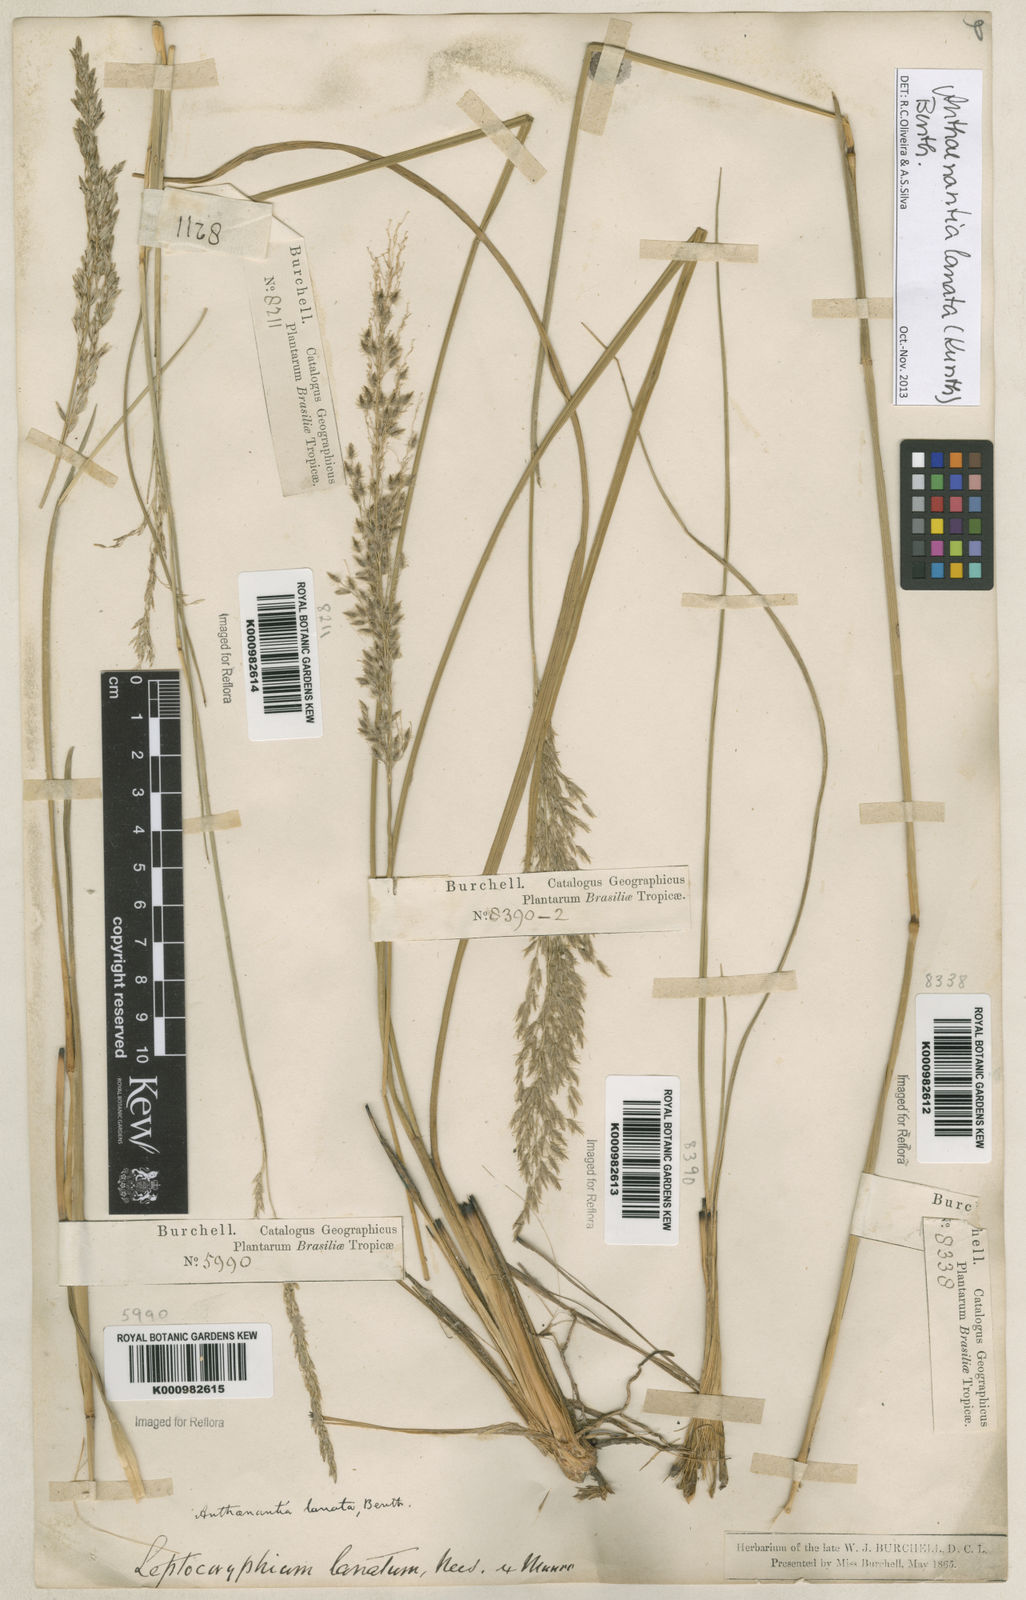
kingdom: Plantae
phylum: Tracheophyta
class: Liliopsida
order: Poales
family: Poaceae
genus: Anthenantia
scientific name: Anthenantia lanata
